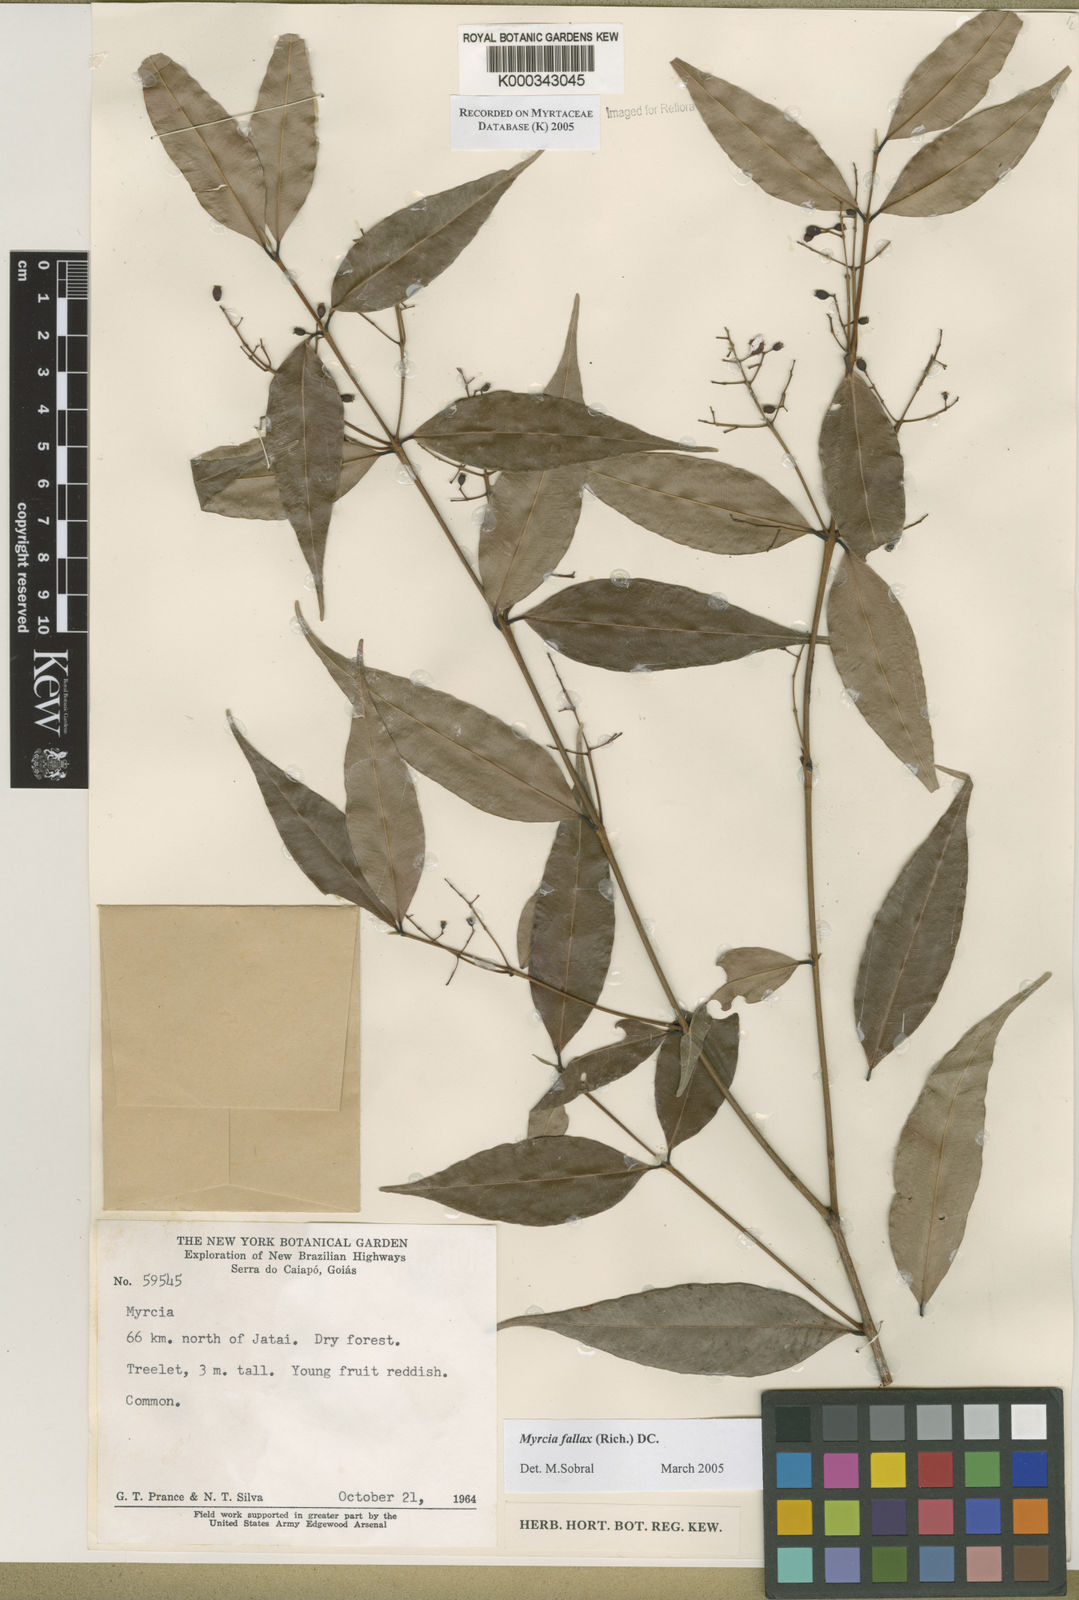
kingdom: Plantae
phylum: Tracheophyta
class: Magnoliopsida
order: Myrtales
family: Myrtaceae
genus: Myrcia
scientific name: Myrcia splendens
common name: Surinam cherry
